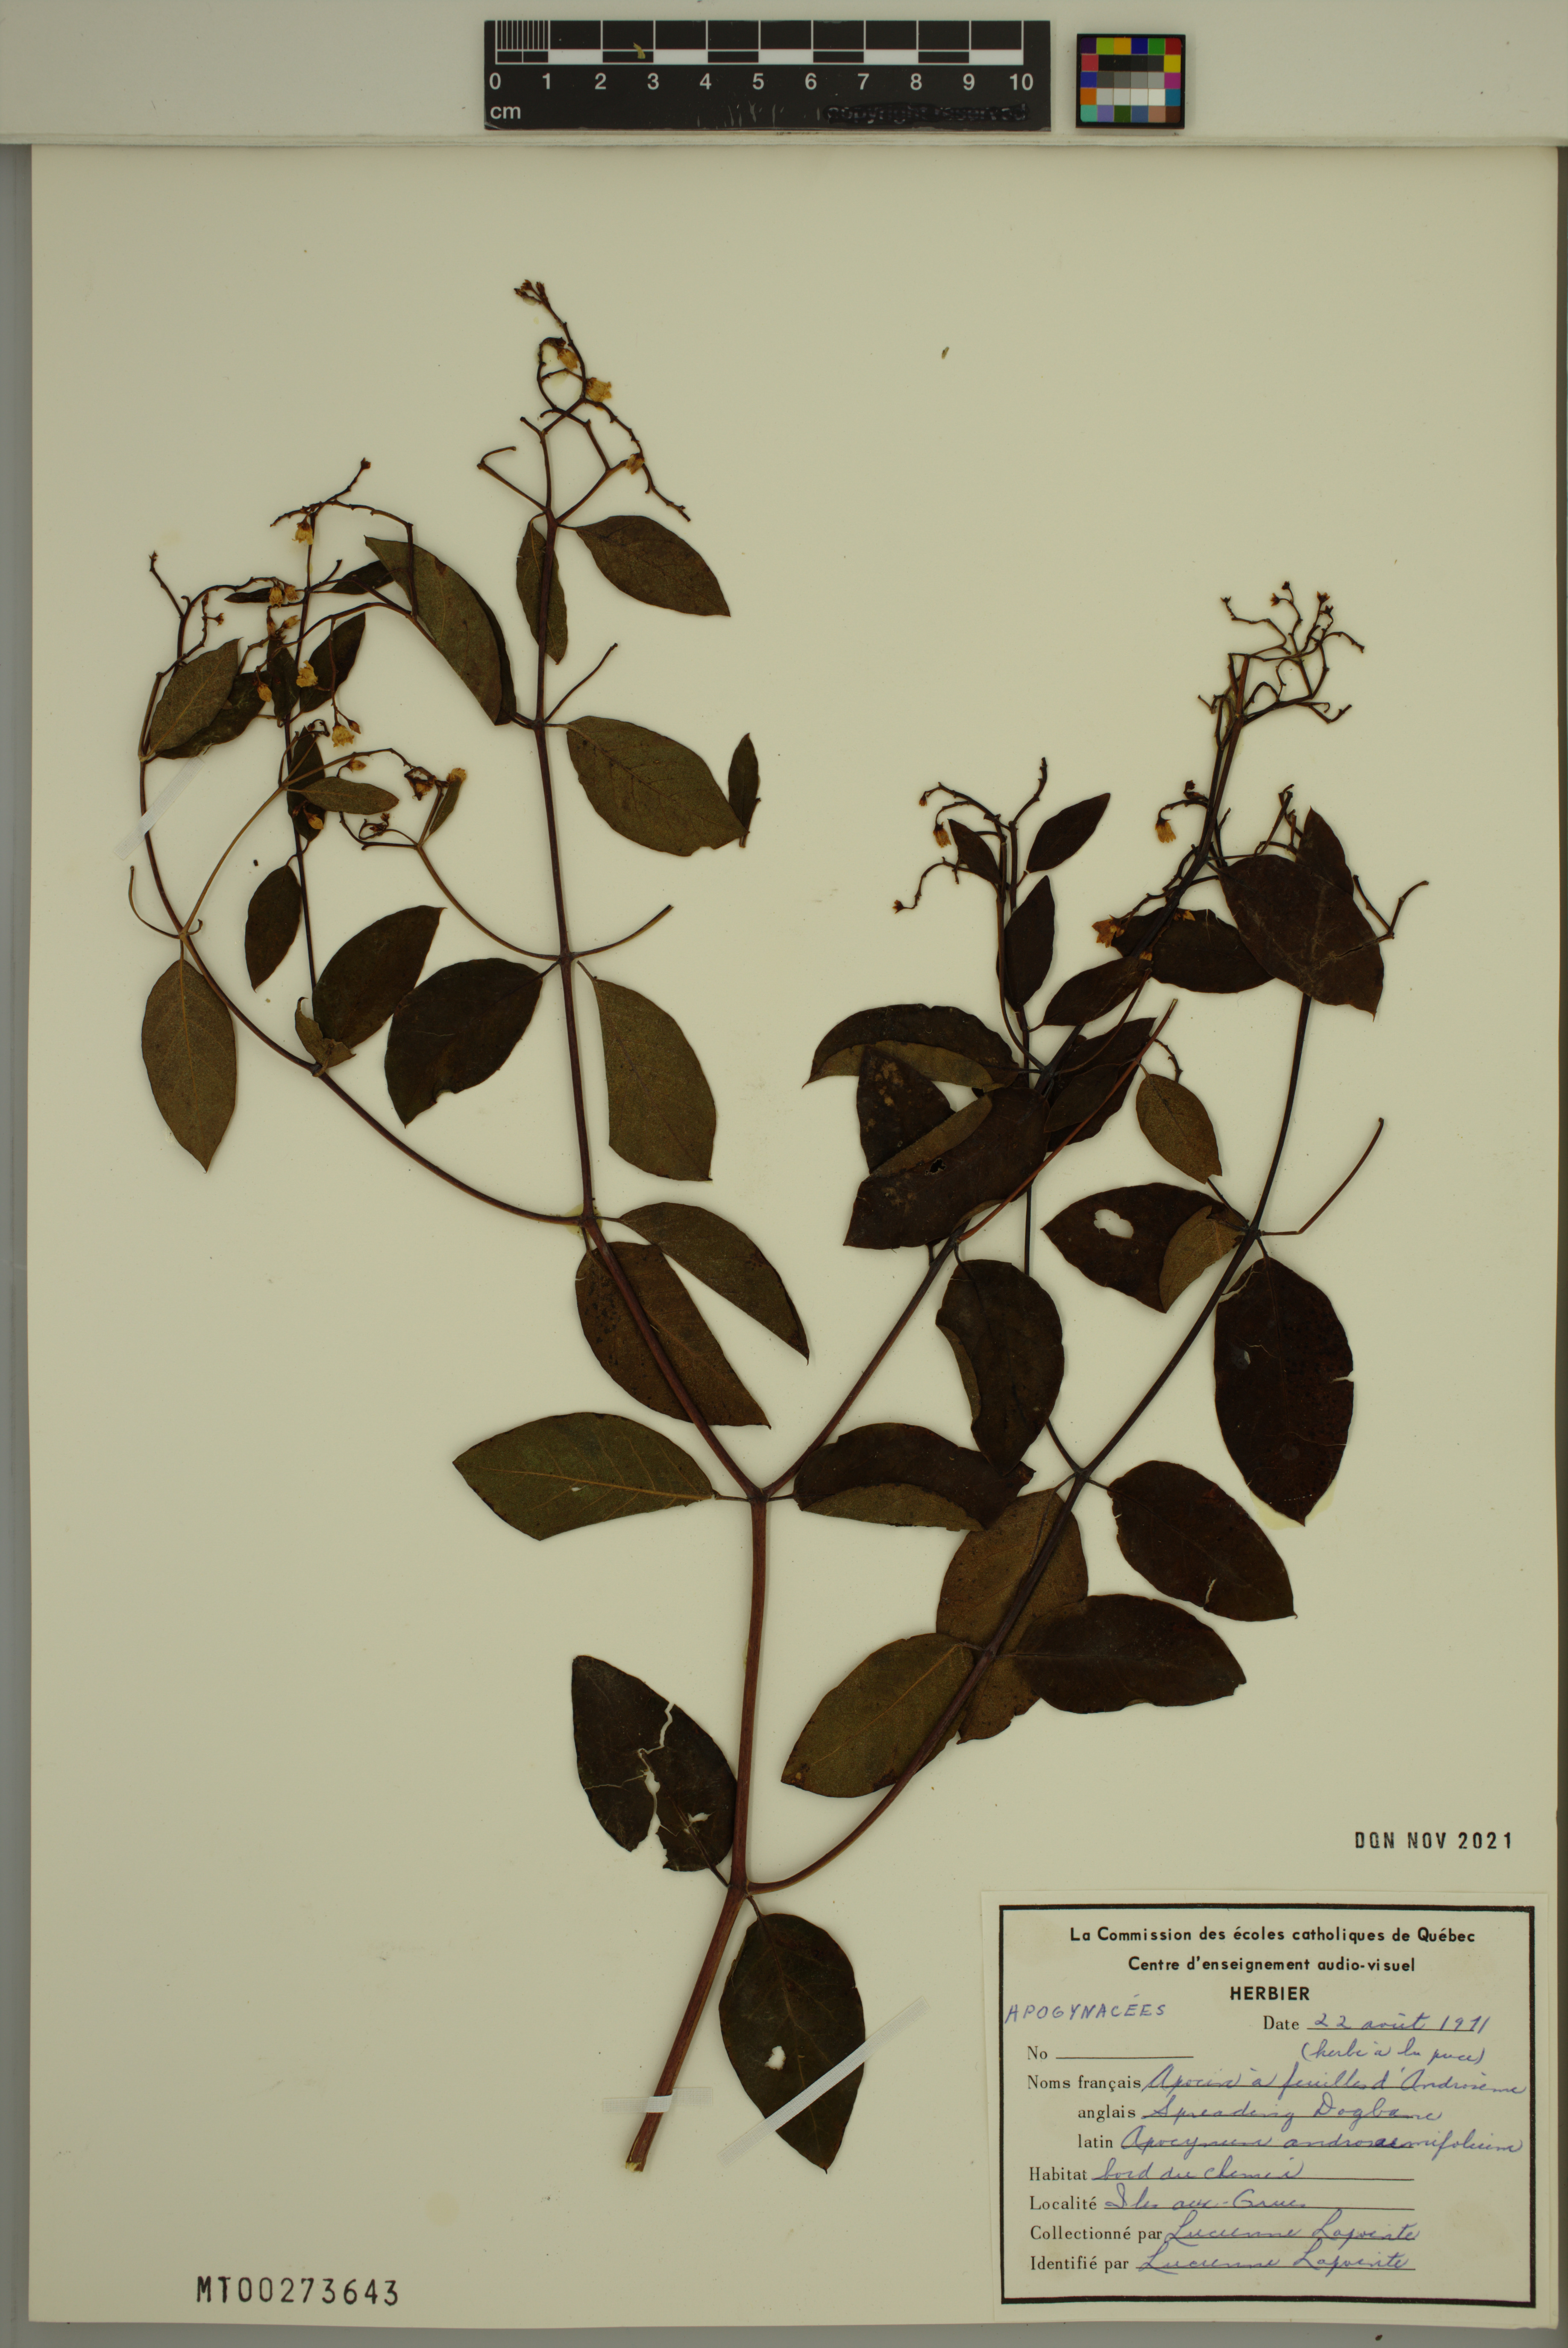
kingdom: Plantae
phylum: Tracheophyta
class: Magnoliopsida
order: Gentianales
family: Apocynaceae
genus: Apocynum
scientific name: Apocynum androsaemifolium
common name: Spreading dogbane
